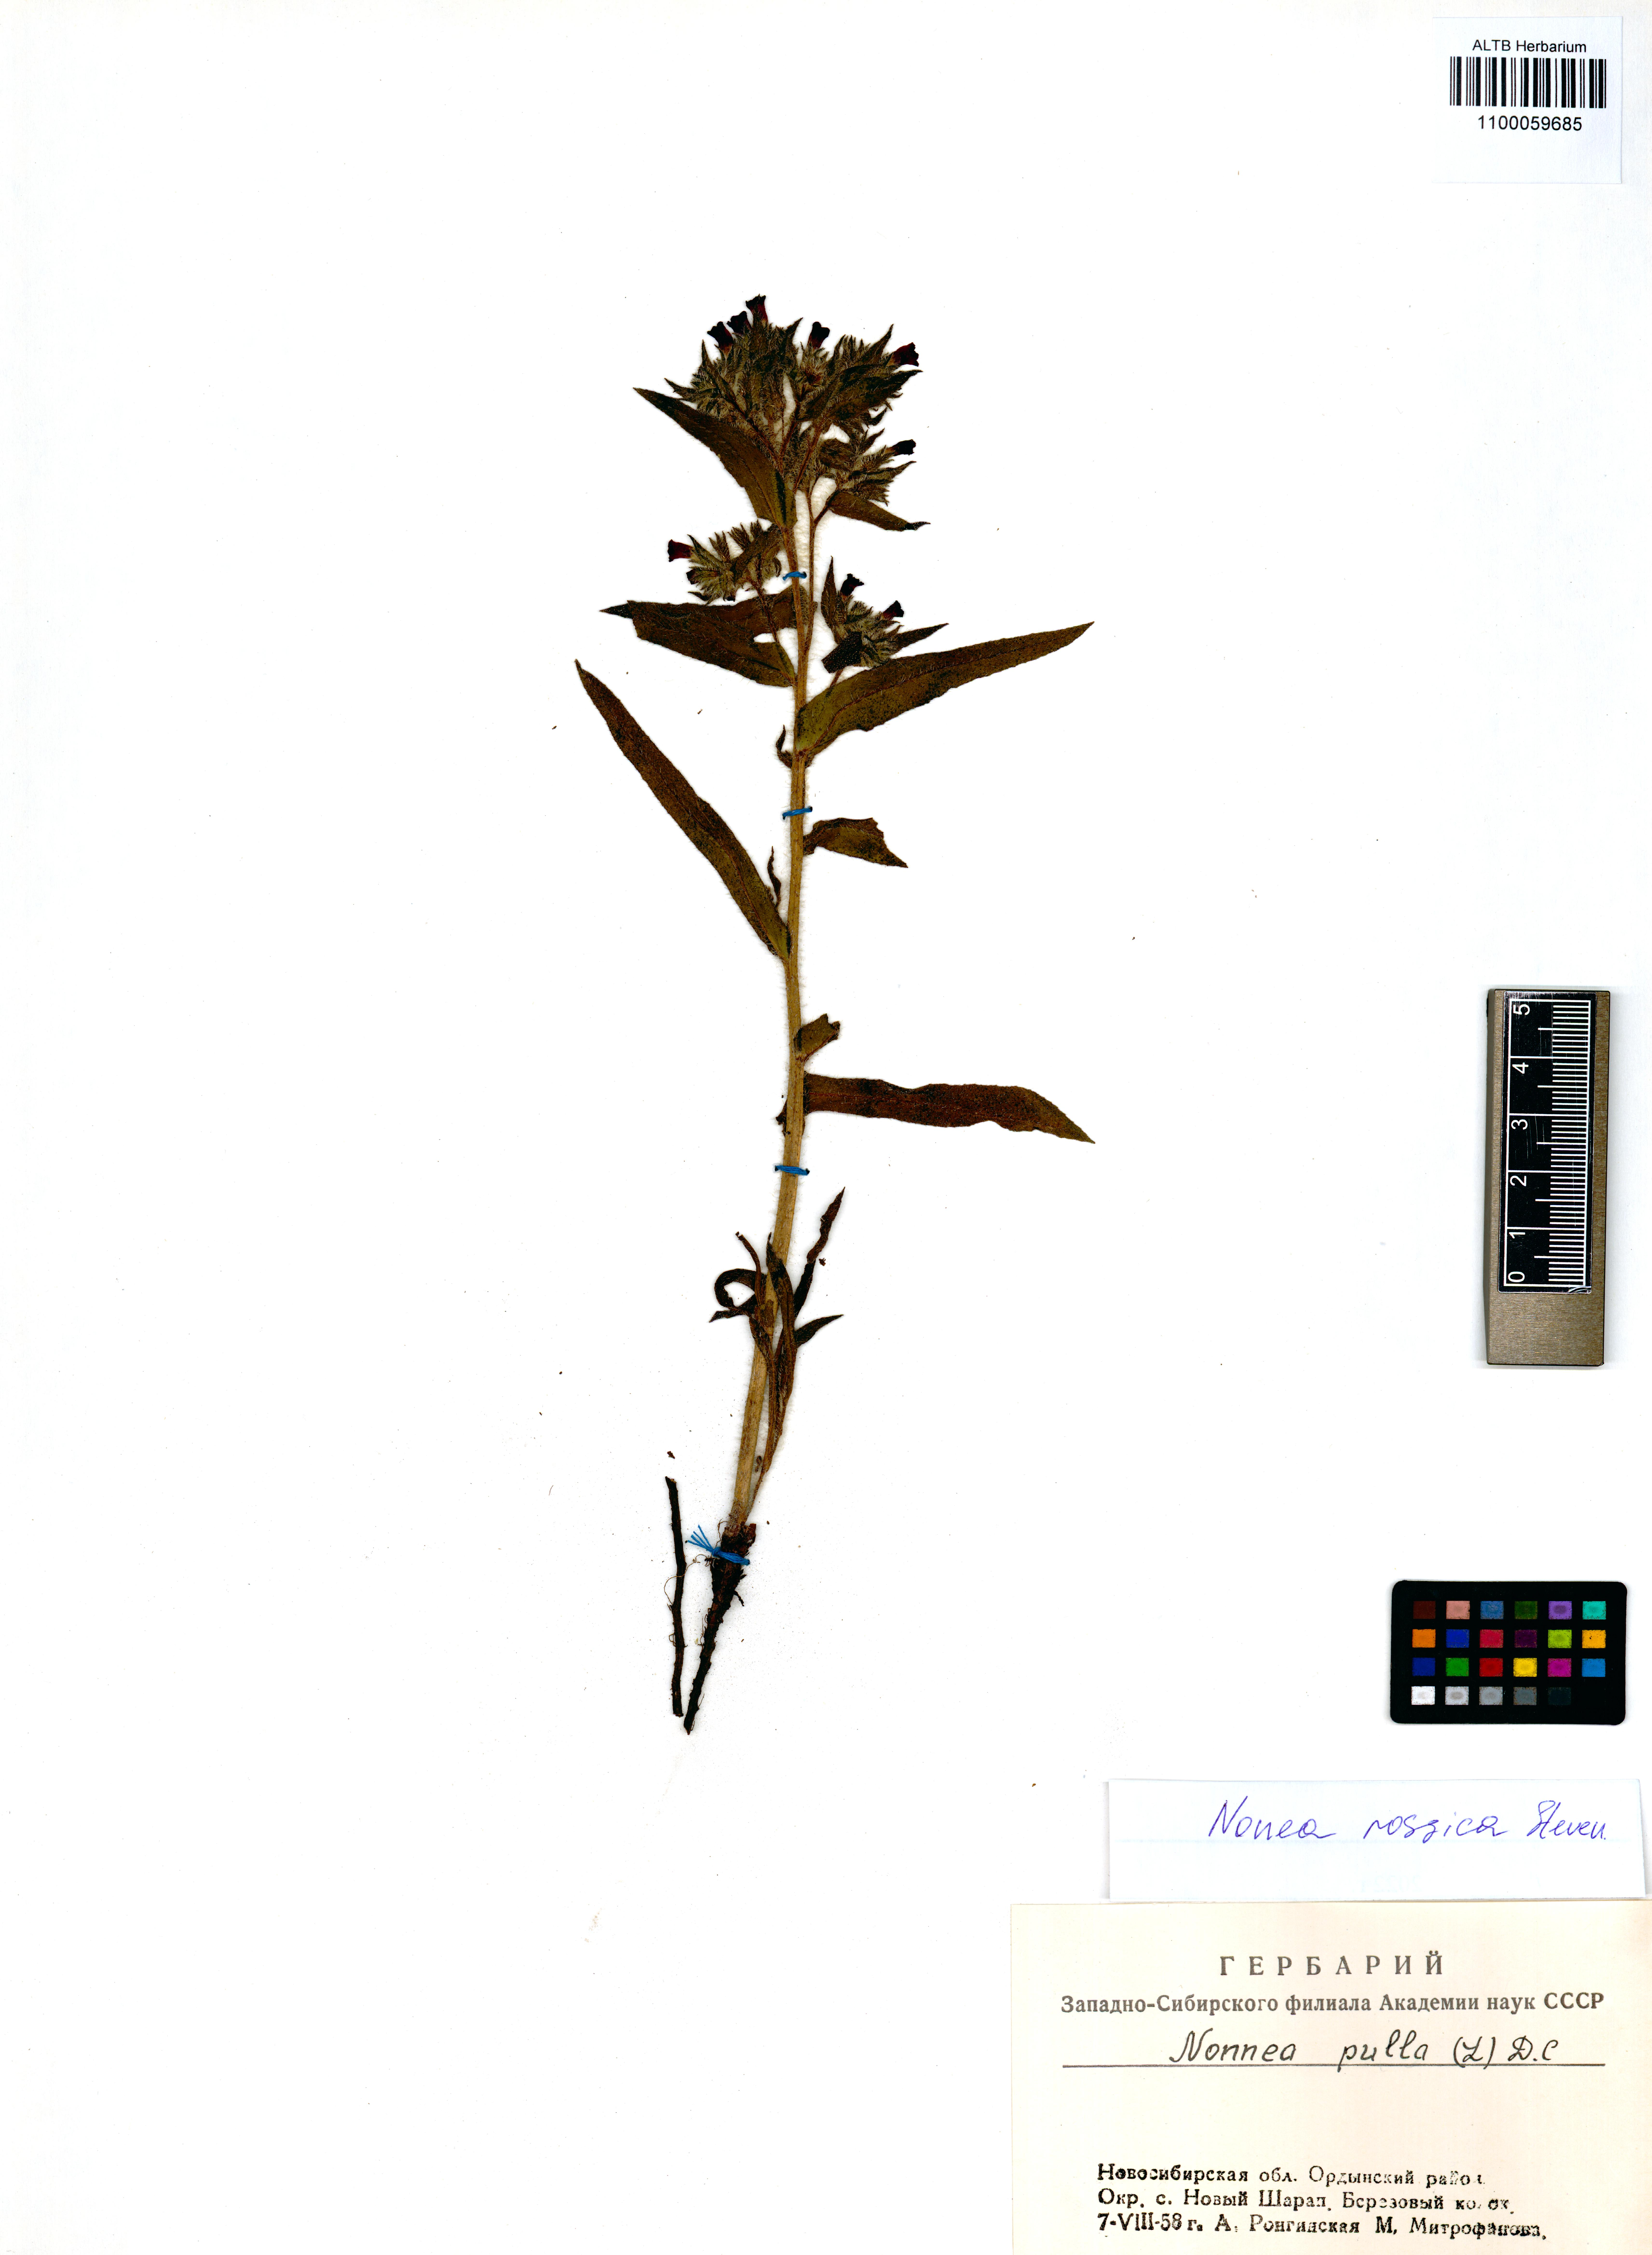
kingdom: Plantae
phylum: Tracheophyta
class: Magnoliopsida
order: Boraginales
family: Boraginaceae
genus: Nonea
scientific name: Nonea pulla
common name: Brown nonea
